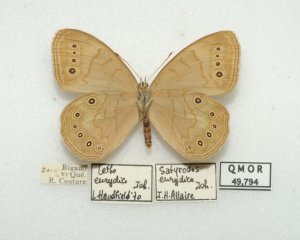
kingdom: Animalia
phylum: Arthropoda
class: Insecta
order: Lepidoptera
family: Nymphalidae
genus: Lethe
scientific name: Lethe eurydice
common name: Eyed Brown
